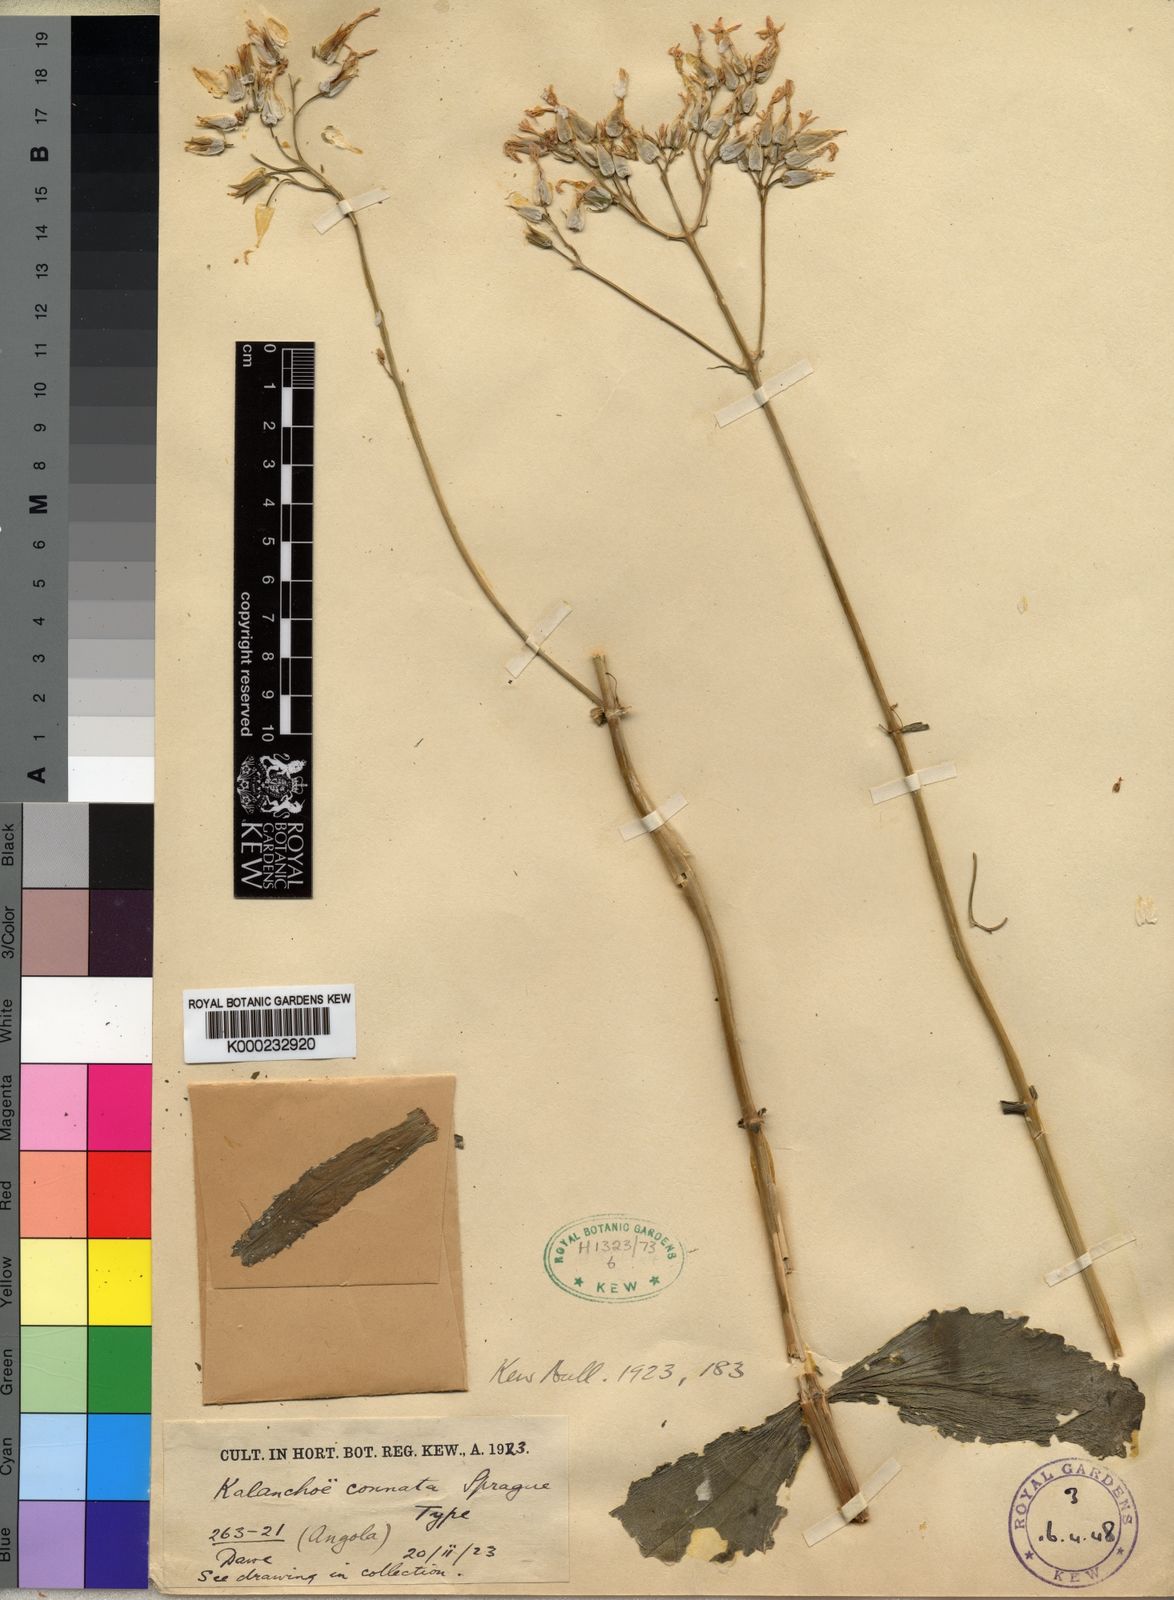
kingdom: Plantae
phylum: Tracheophyta
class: Magnoliopsida
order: Saxifragales
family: Crassulaceae
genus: Kalanchoe
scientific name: Kalanchoe crenata
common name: Neverdie
